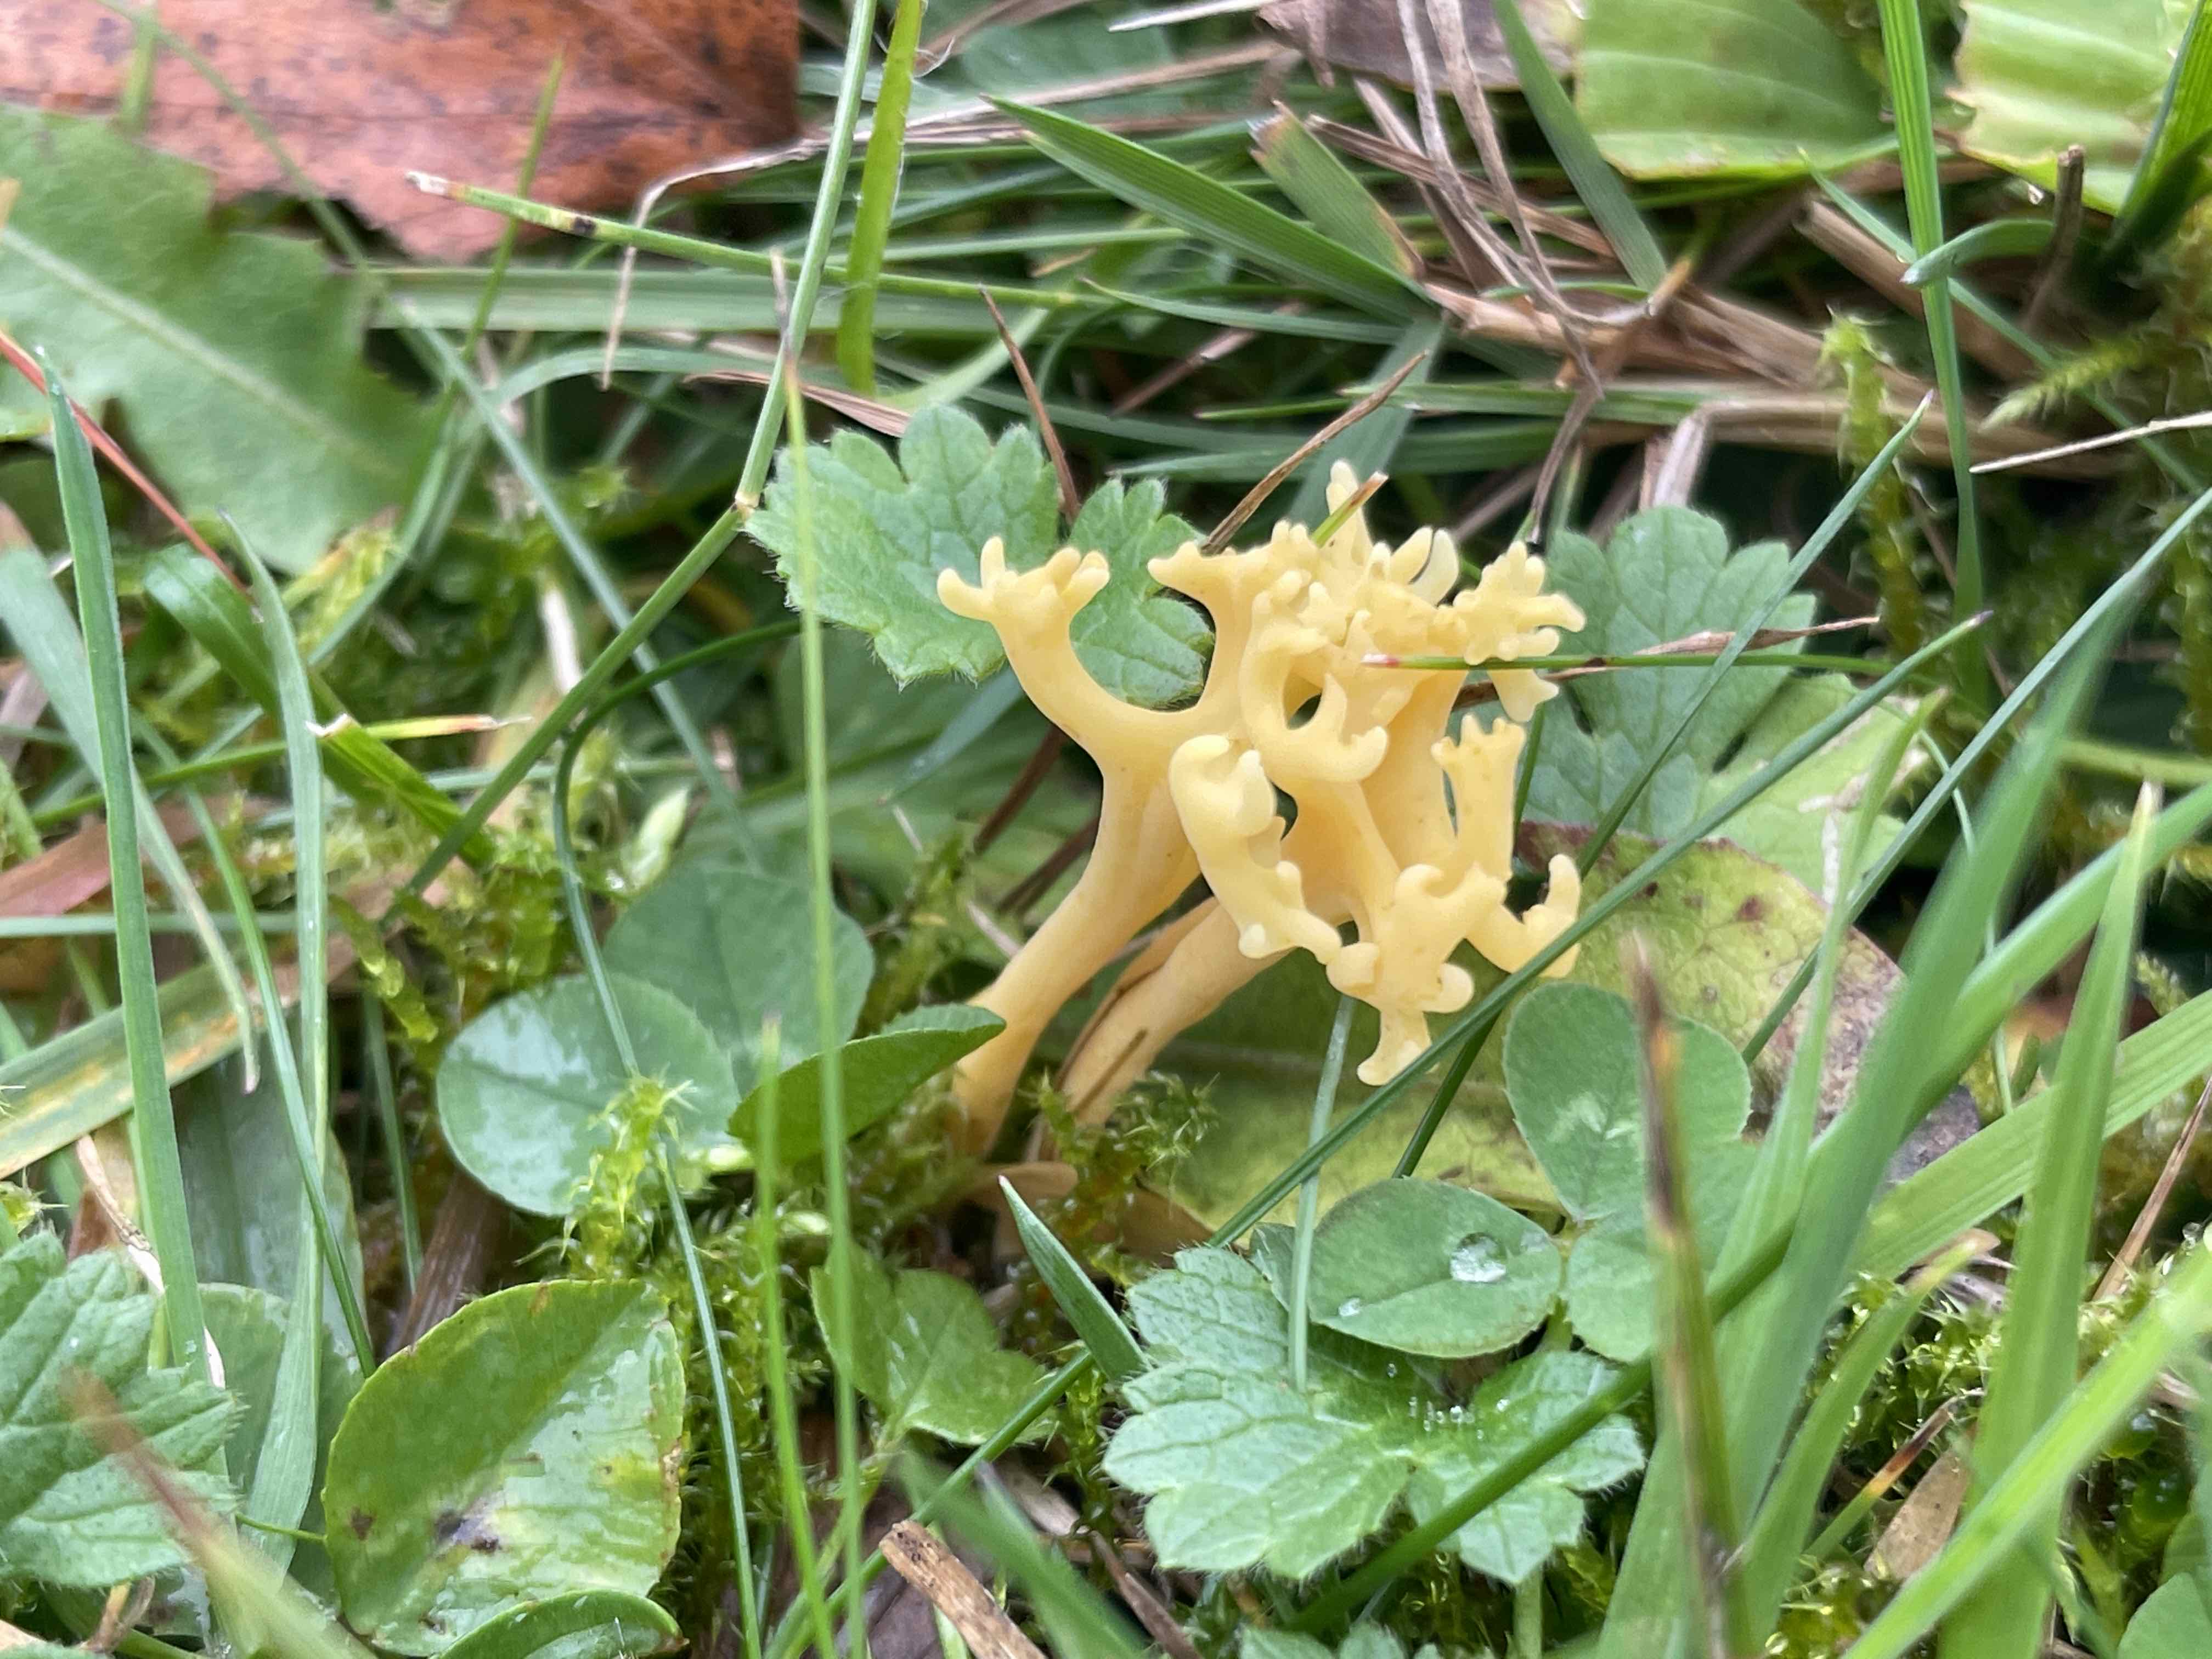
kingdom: Fungi
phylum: Basidiomycota
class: Agaricomycetes
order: Agaricales
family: Clavariaceae
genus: Clavulinopsis
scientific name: Clavulinopsis corniculata
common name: eng-køllesvamp
